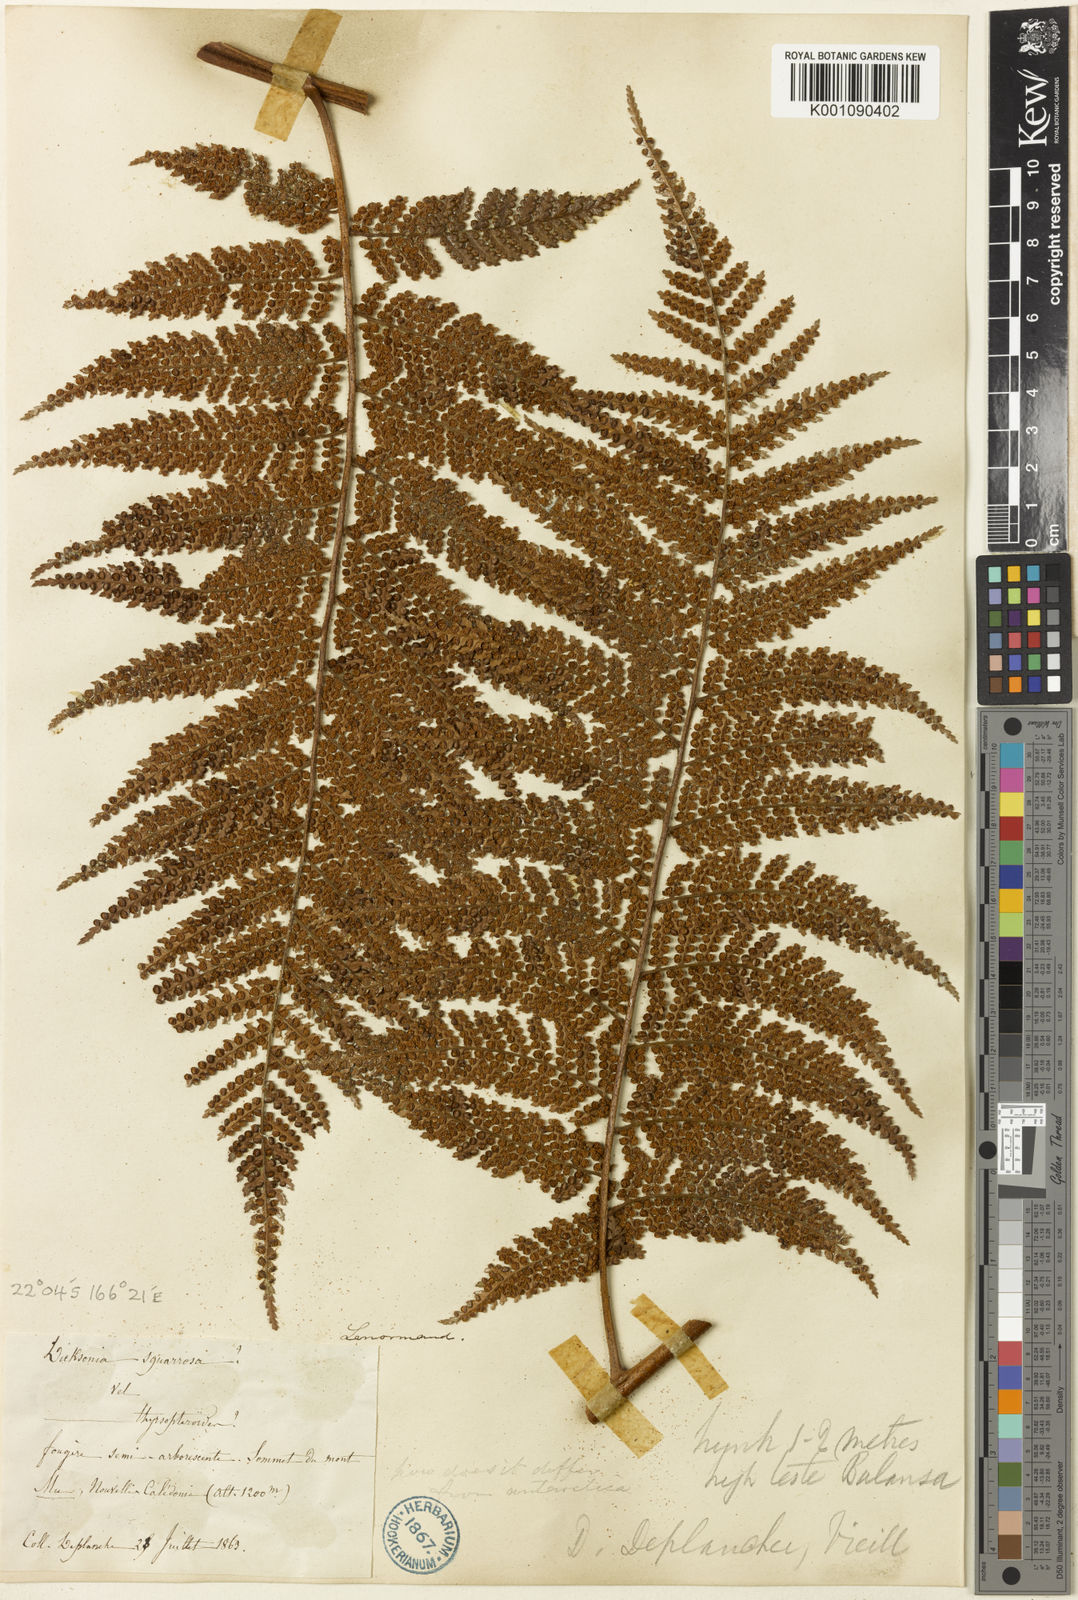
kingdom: Plantae
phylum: Tracheophyta
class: Polypodiopsida
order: Cyatheales
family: Dicksoniaceae
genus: Dicksonia
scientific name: Dicksonia baudouinii
